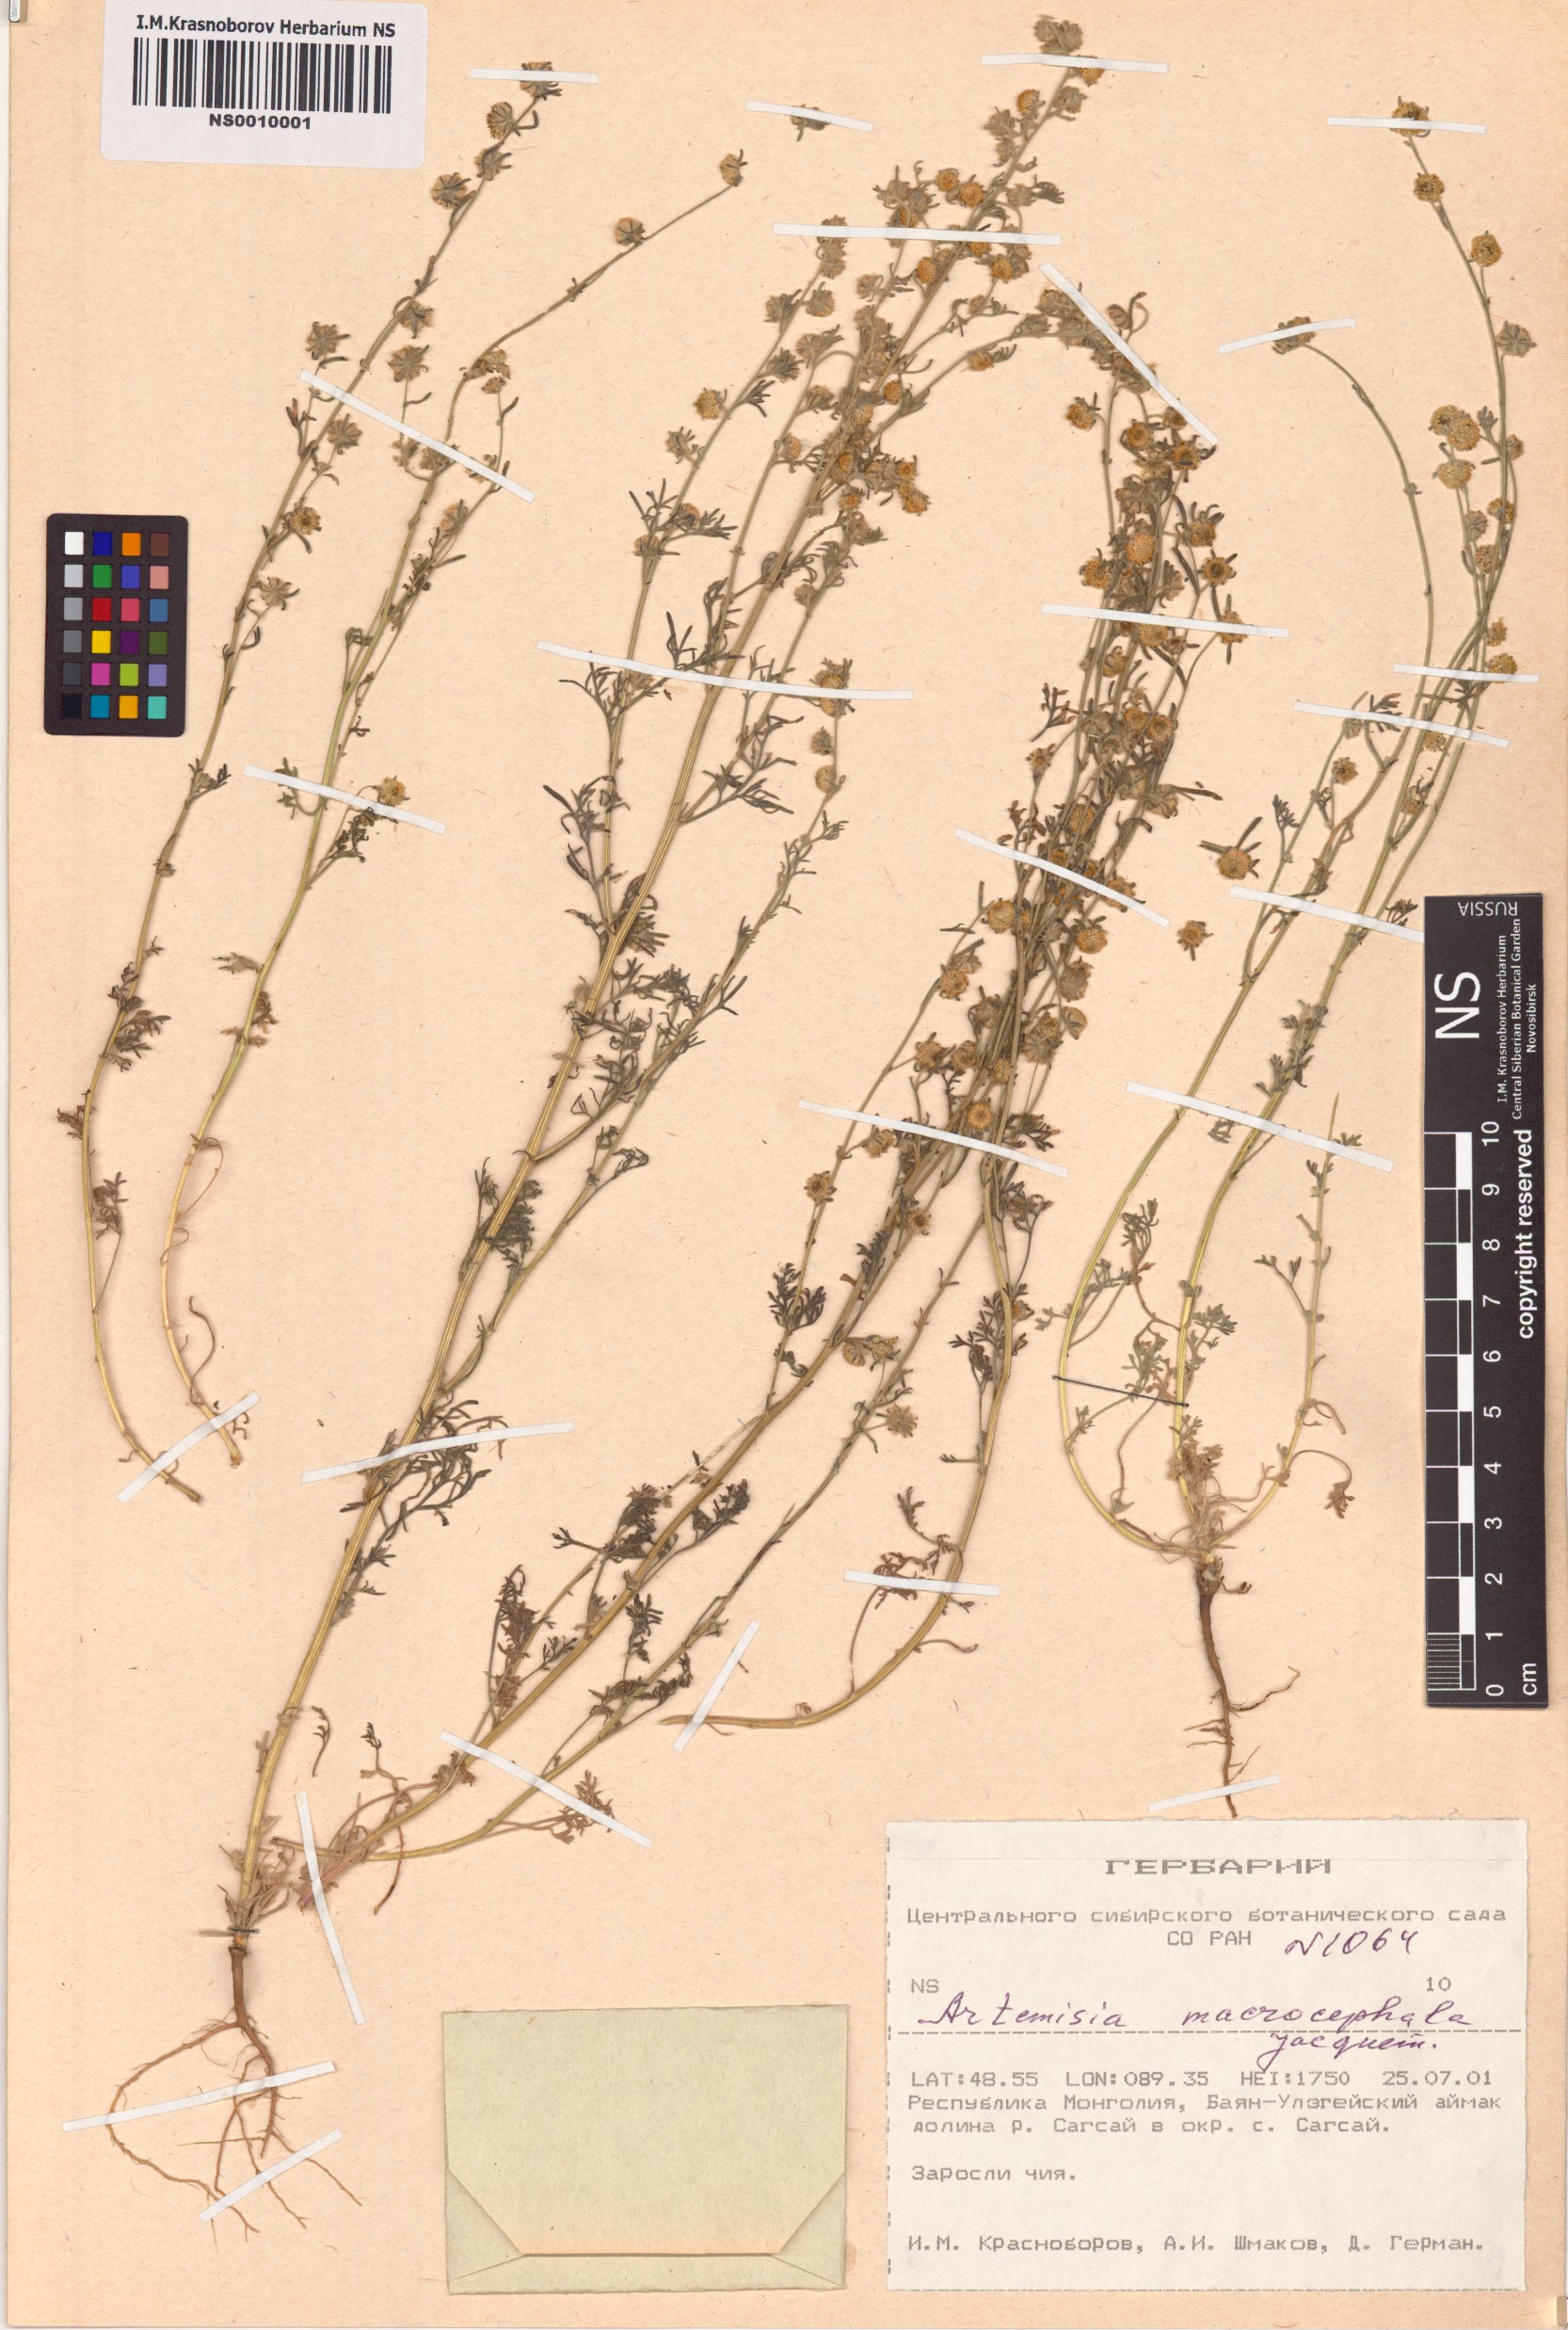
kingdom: Plantae
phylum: Tracheophyta
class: Magnoliopsida
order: Asterales
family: Asteraceae
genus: Artemisia
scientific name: Artemisia macrocephala
